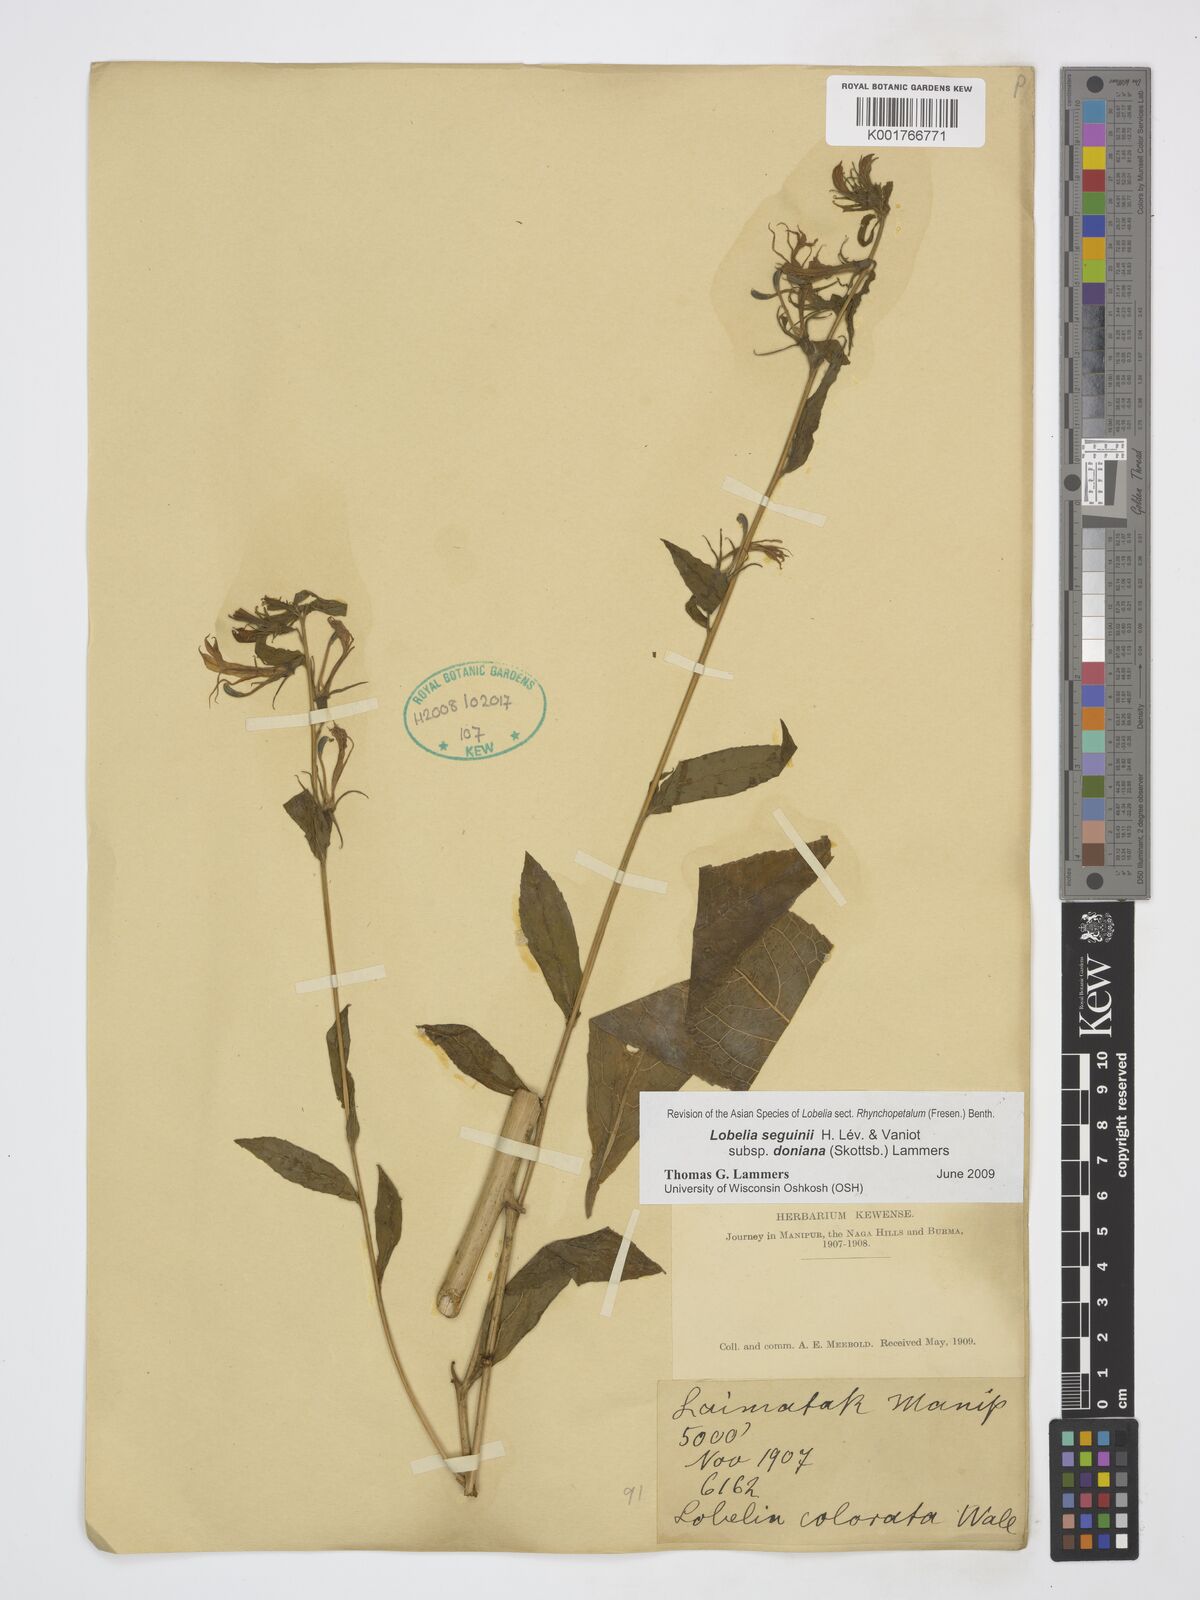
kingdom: Plantae
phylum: Tracheophyta
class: Magnoliopsida
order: Asterales
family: Campanulaceae
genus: Lobelia
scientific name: Lobelia seguinii
